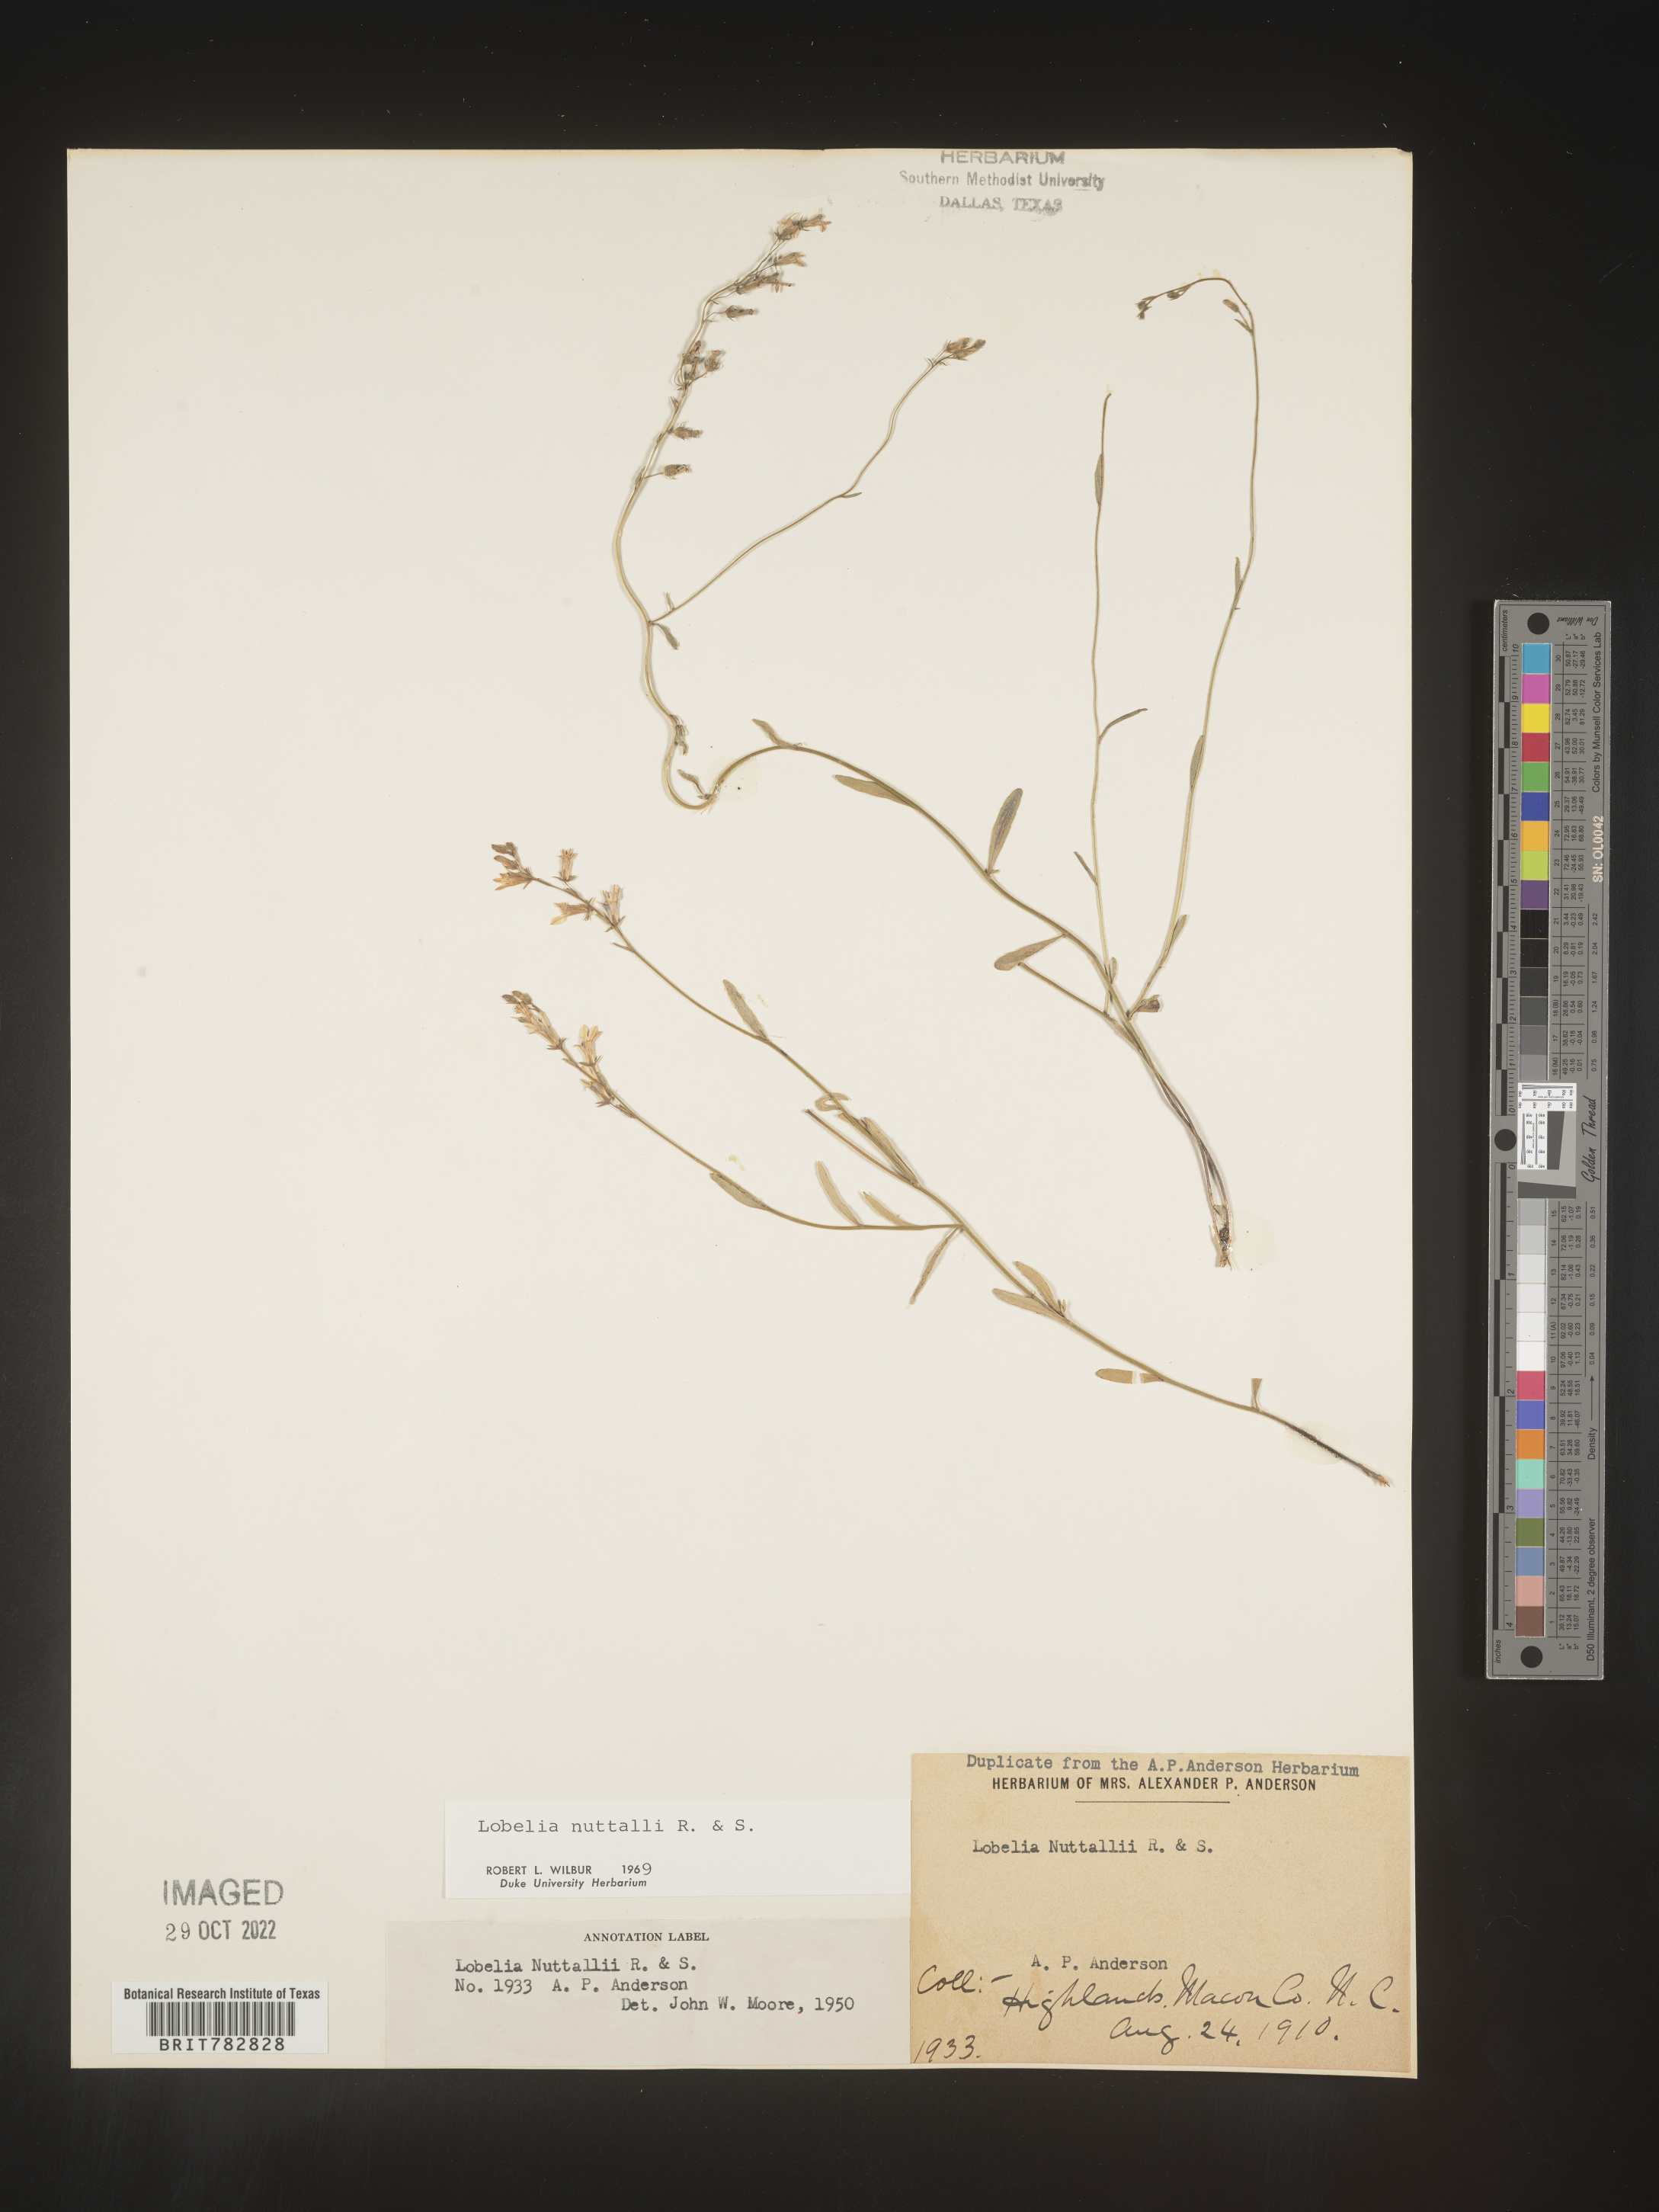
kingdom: Plantae
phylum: Tracheophyta
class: Magnoliopsida
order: Asterales
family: Campanulaceae
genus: Lobelia
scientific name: Lobelia nuttallii
